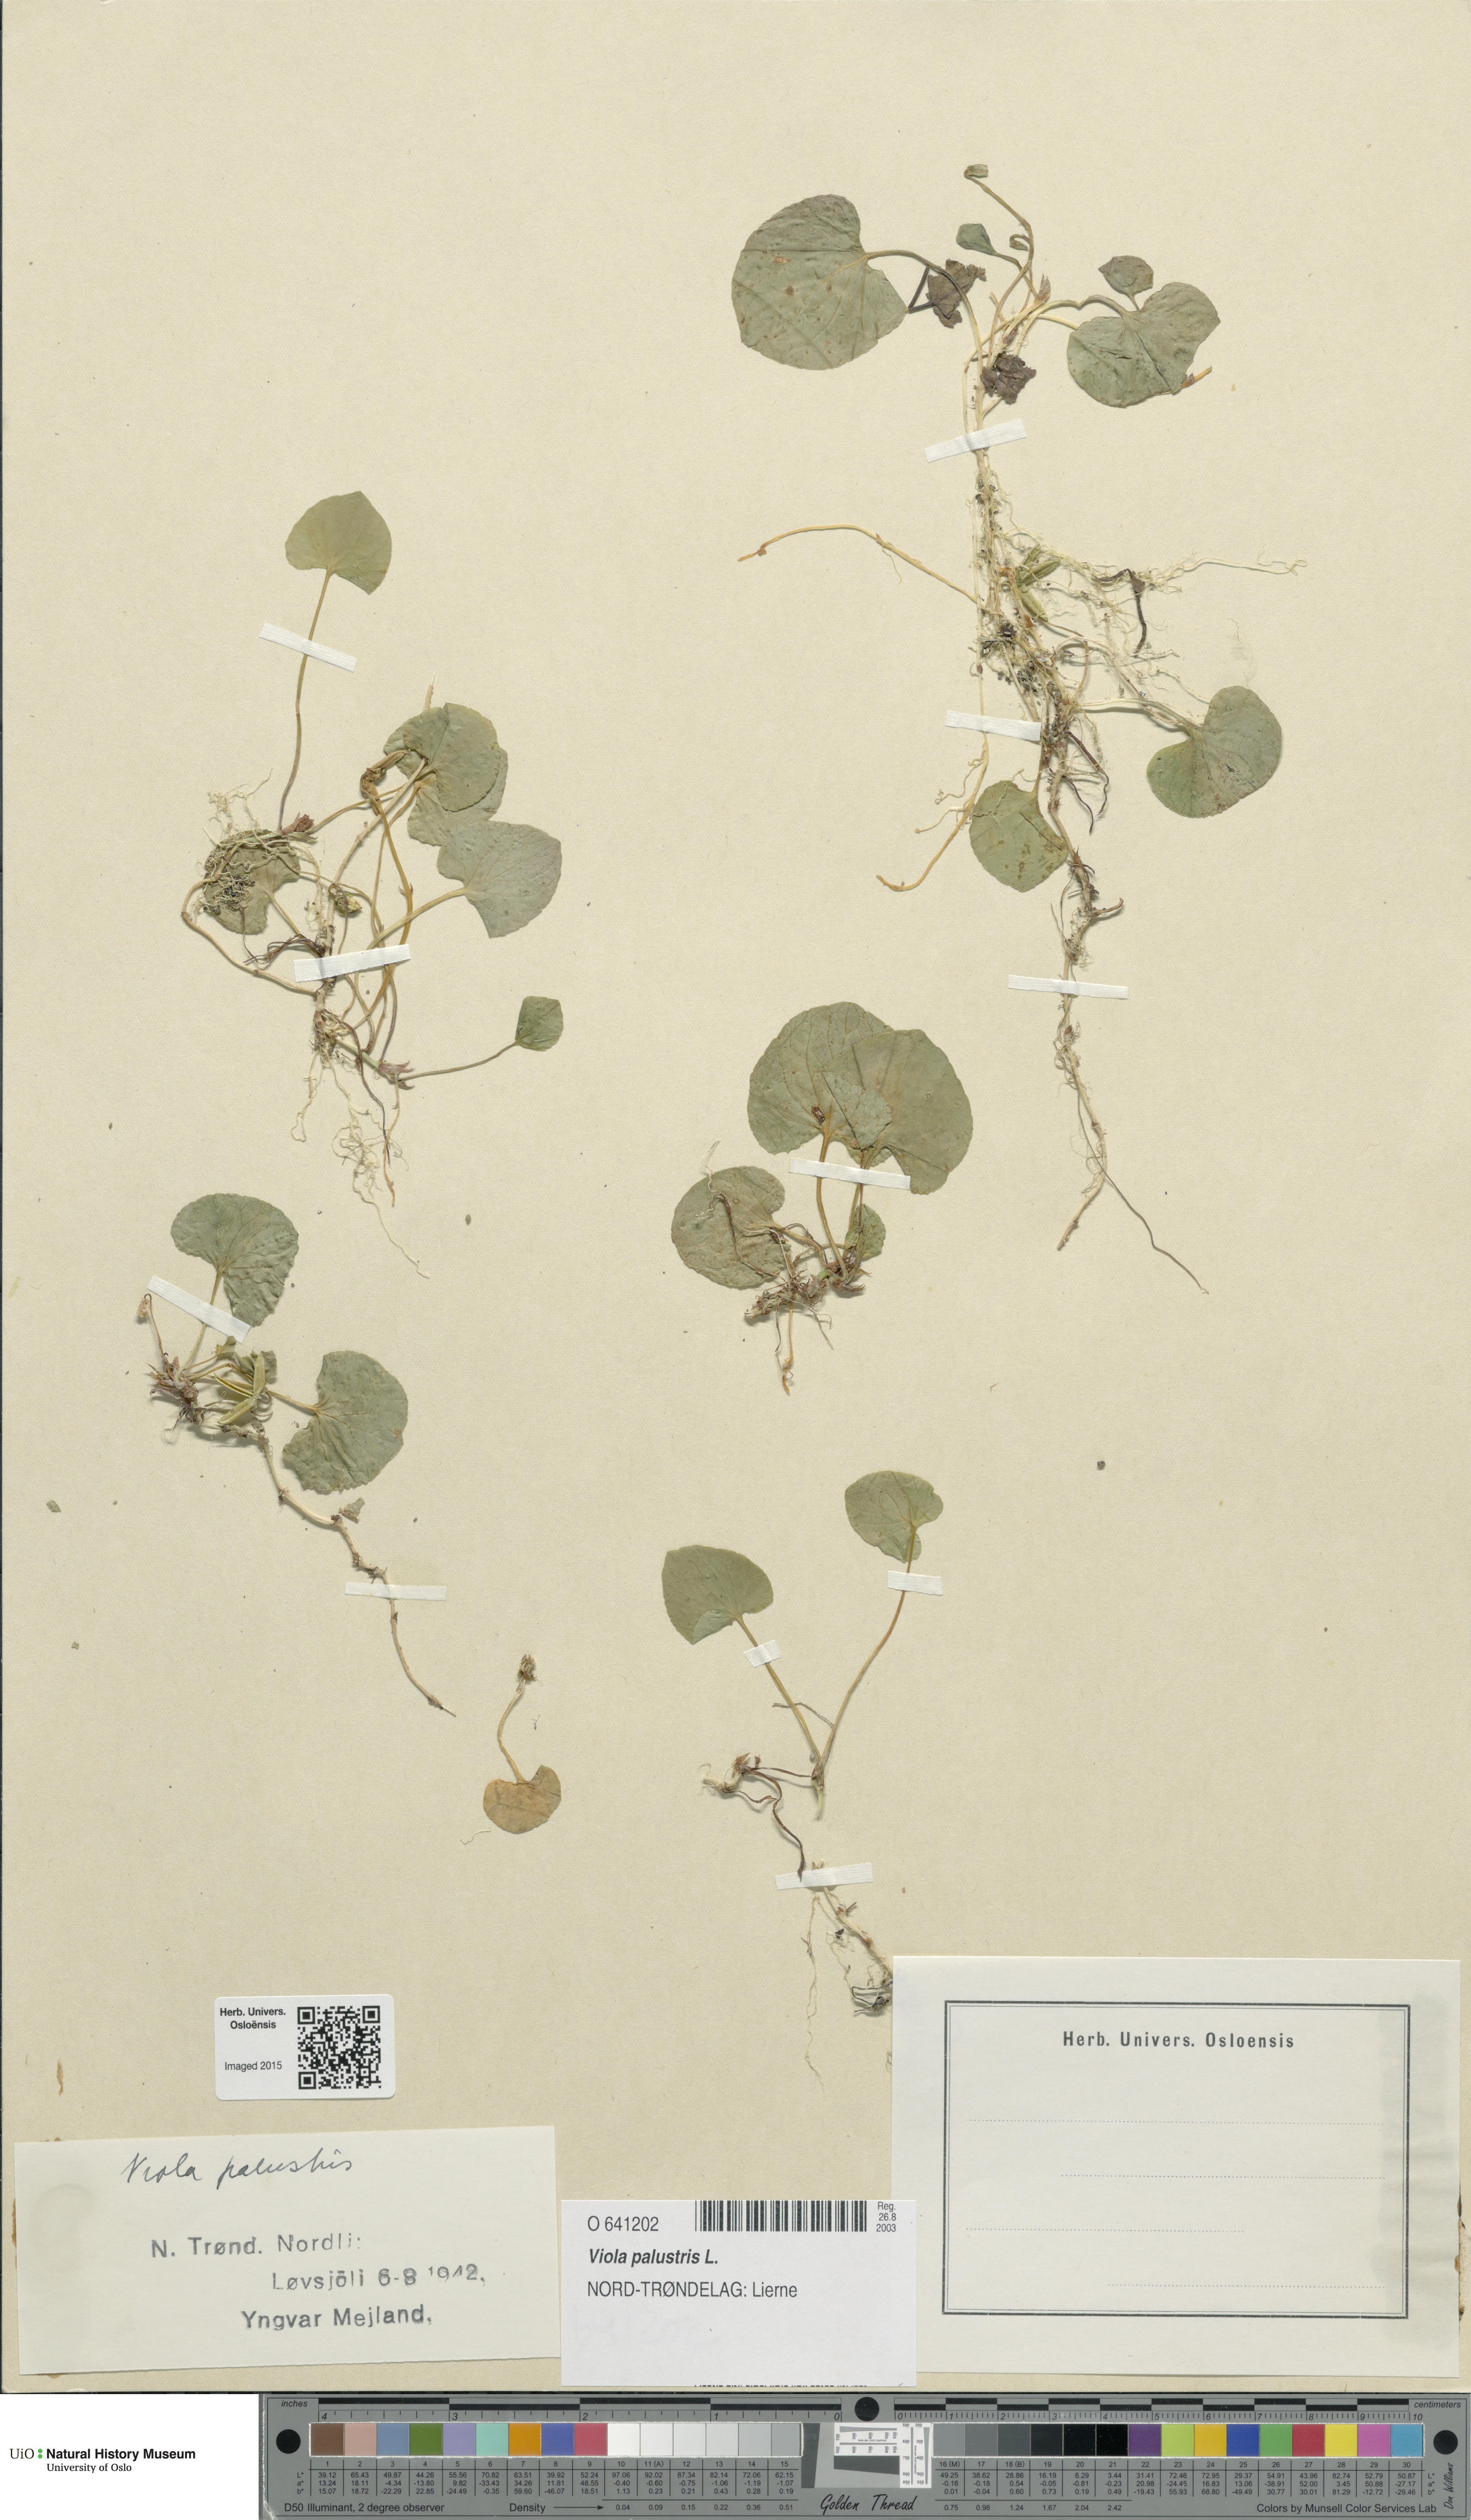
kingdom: Plantae
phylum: Tracheophyta
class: Magnoliopsida
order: Malpighiales
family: Violaceae
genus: Viola
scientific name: Viola palustris
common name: Marsh violet
